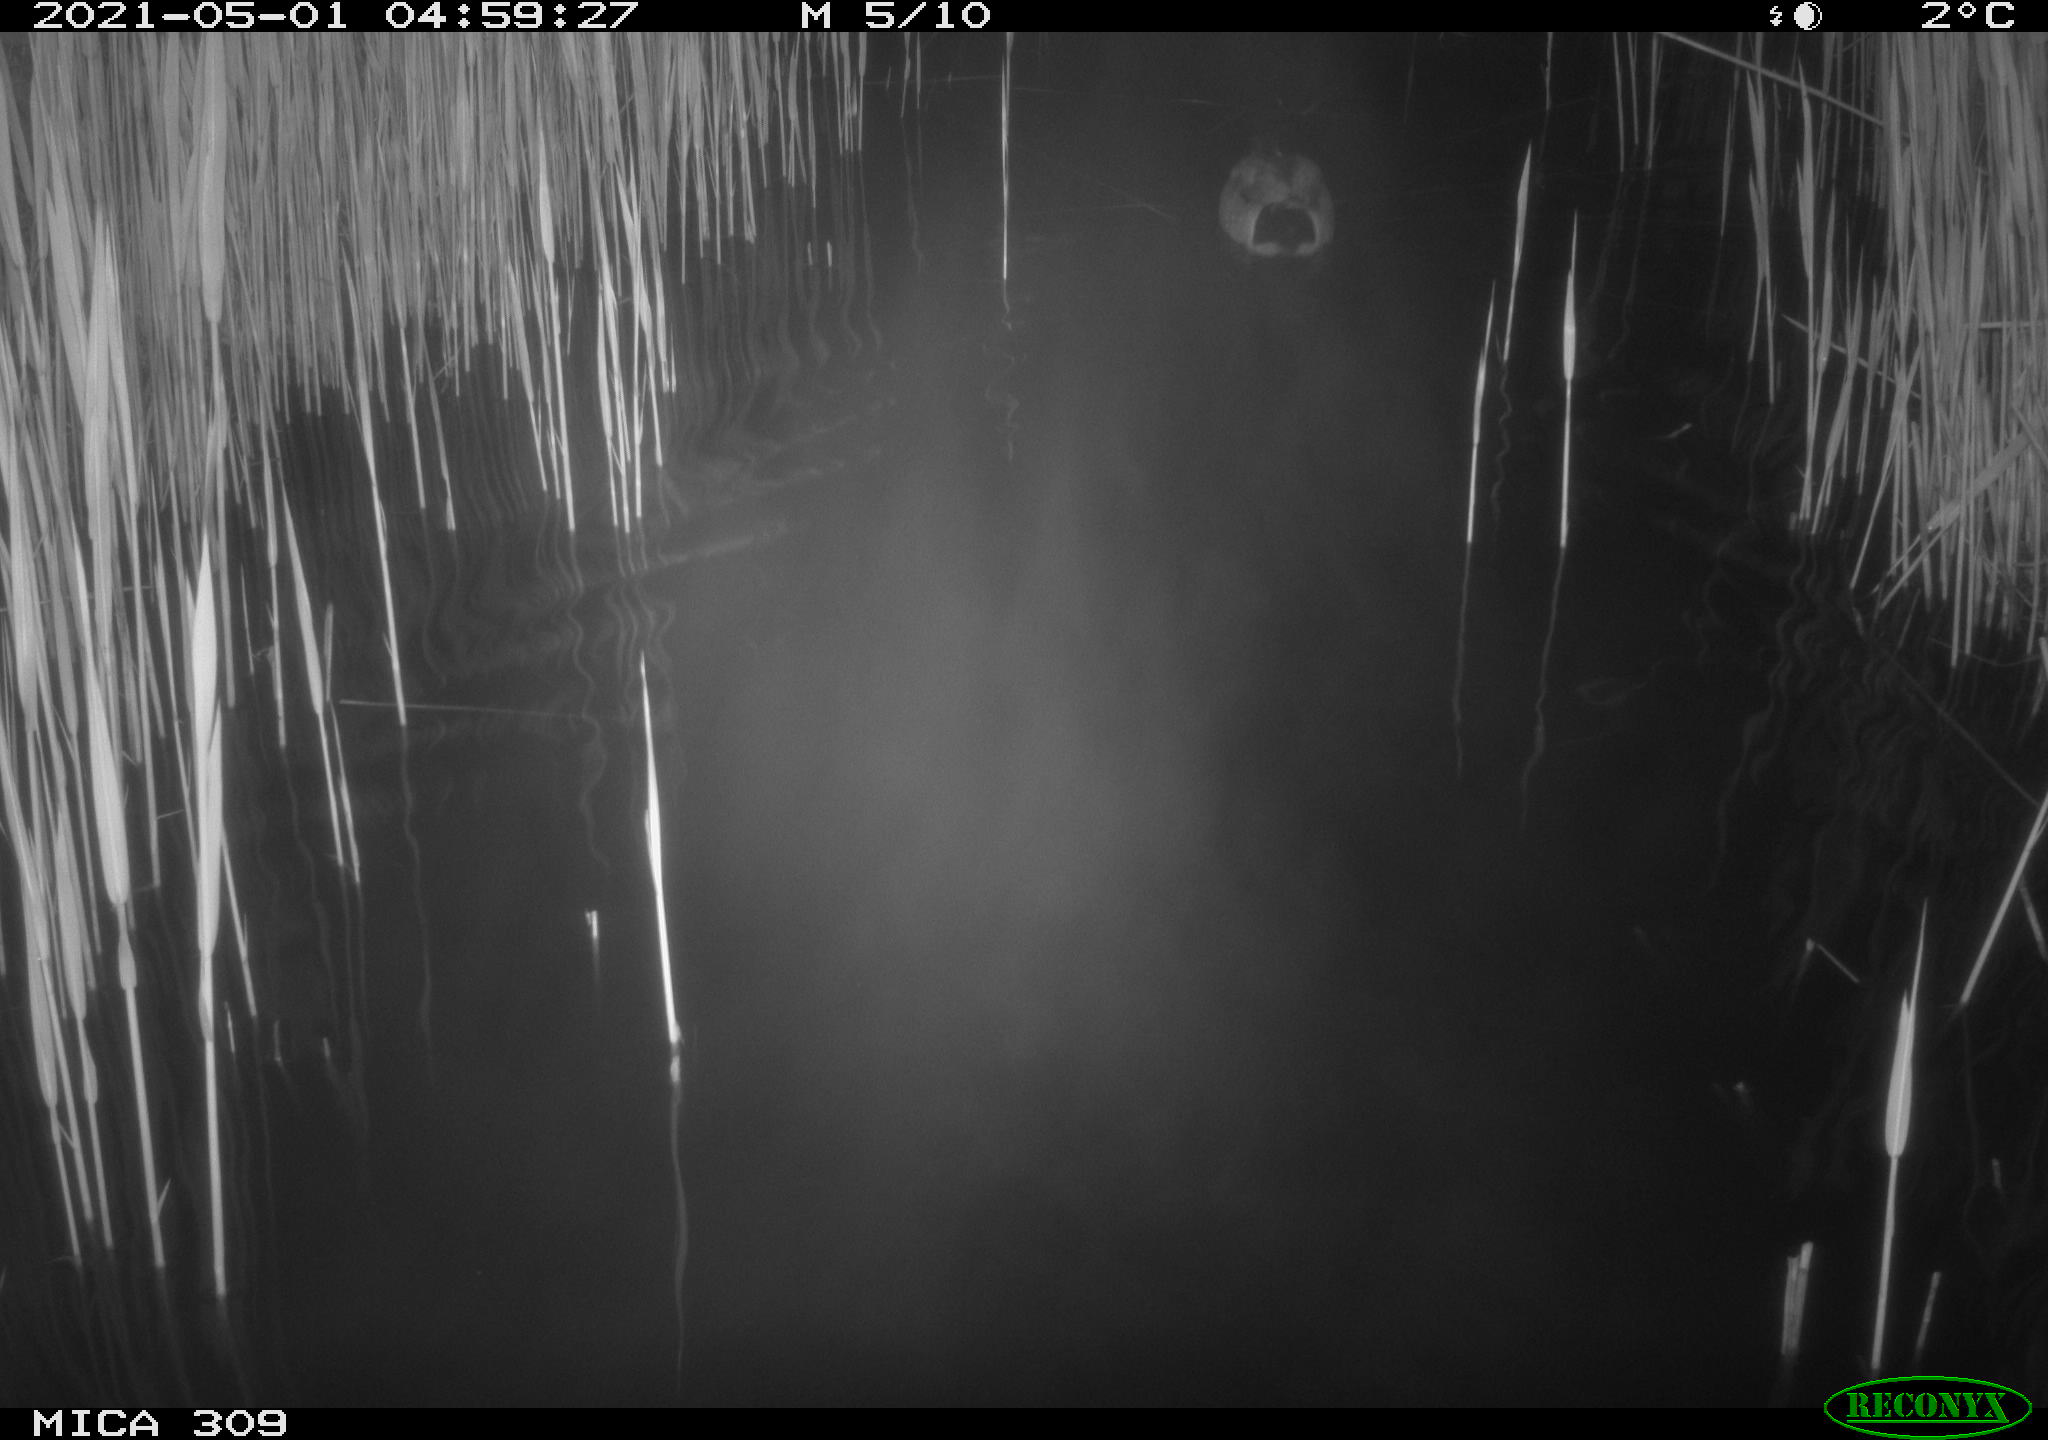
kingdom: Animalia
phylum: Chordata
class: Aves
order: Anseriformes
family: Anatidae
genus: Anas
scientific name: Anas platyrhynchos
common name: Mallard
